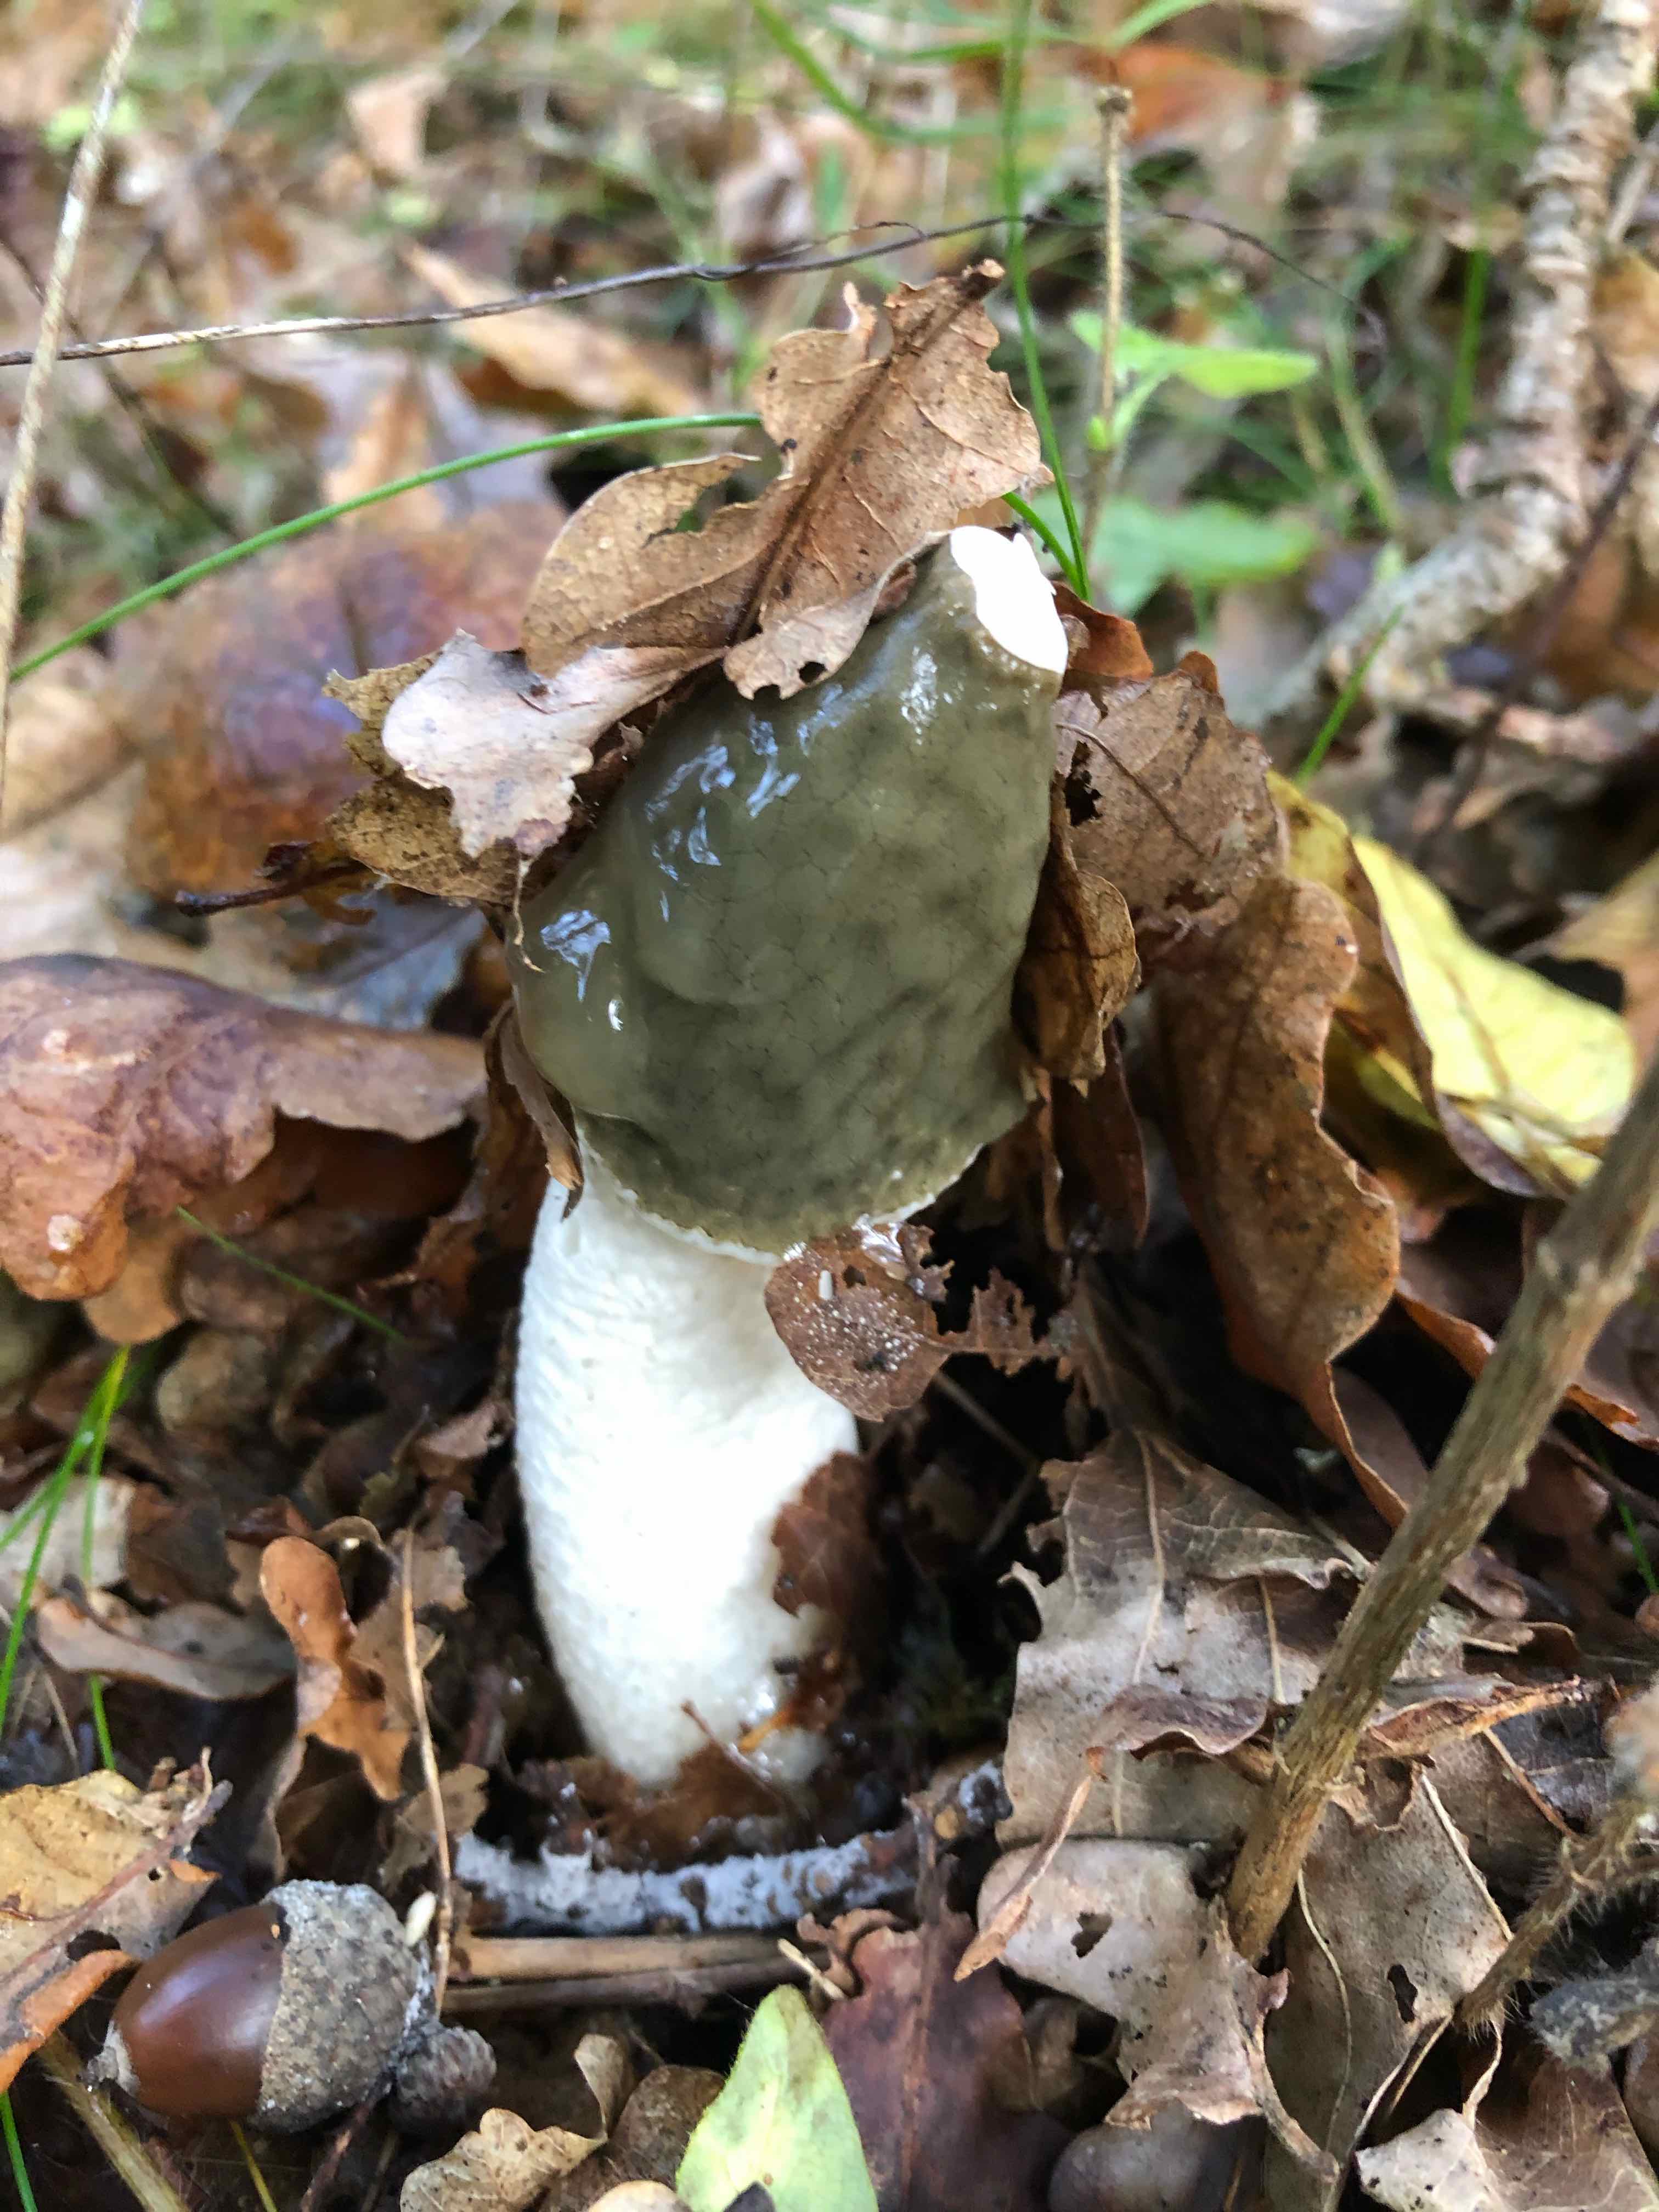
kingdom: Fungi
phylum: Basidiomycota
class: Agaricomycetes
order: Phallales
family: Phallaceae
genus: Phallus
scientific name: Phallus impudicus
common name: almindelig stinksvamp
